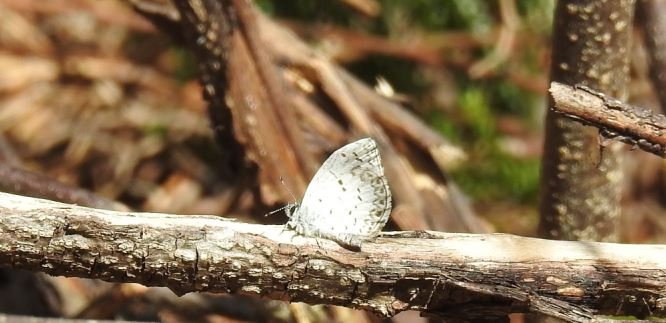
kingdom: Animalia
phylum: Arthropoda
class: Insecta
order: Lepidoptera
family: Lycaenidae
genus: Celastrina
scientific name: Celastrina lucia
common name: Northern Spring Azure
